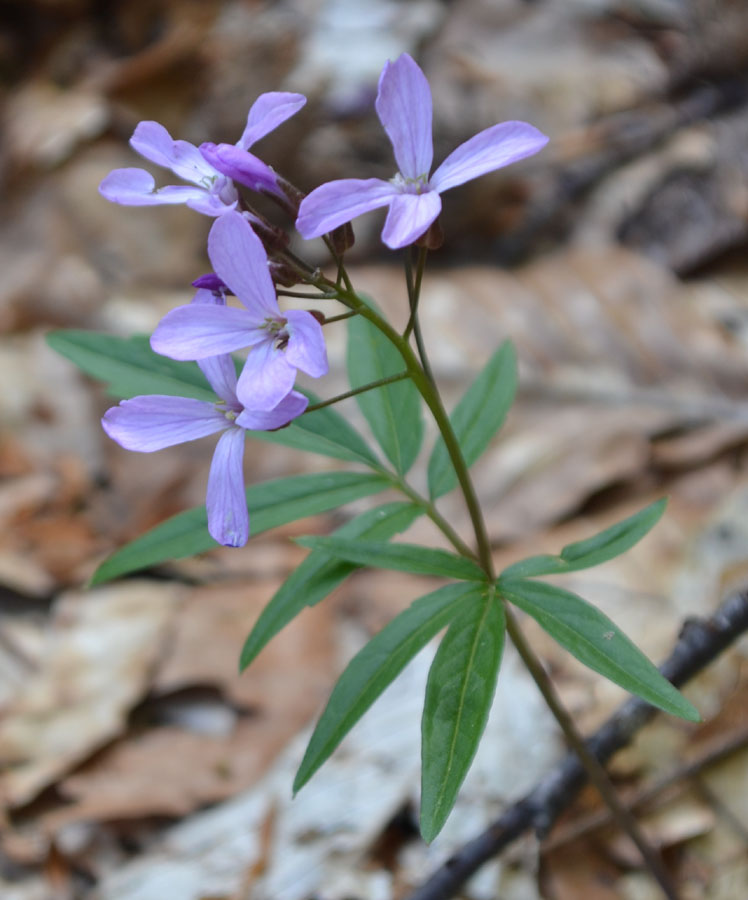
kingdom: Plantae
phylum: Tracheophyta
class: Magnoliopsida
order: Brassicales
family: Brassicaceae
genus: Cardamine
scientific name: Cardamine bulbifera
